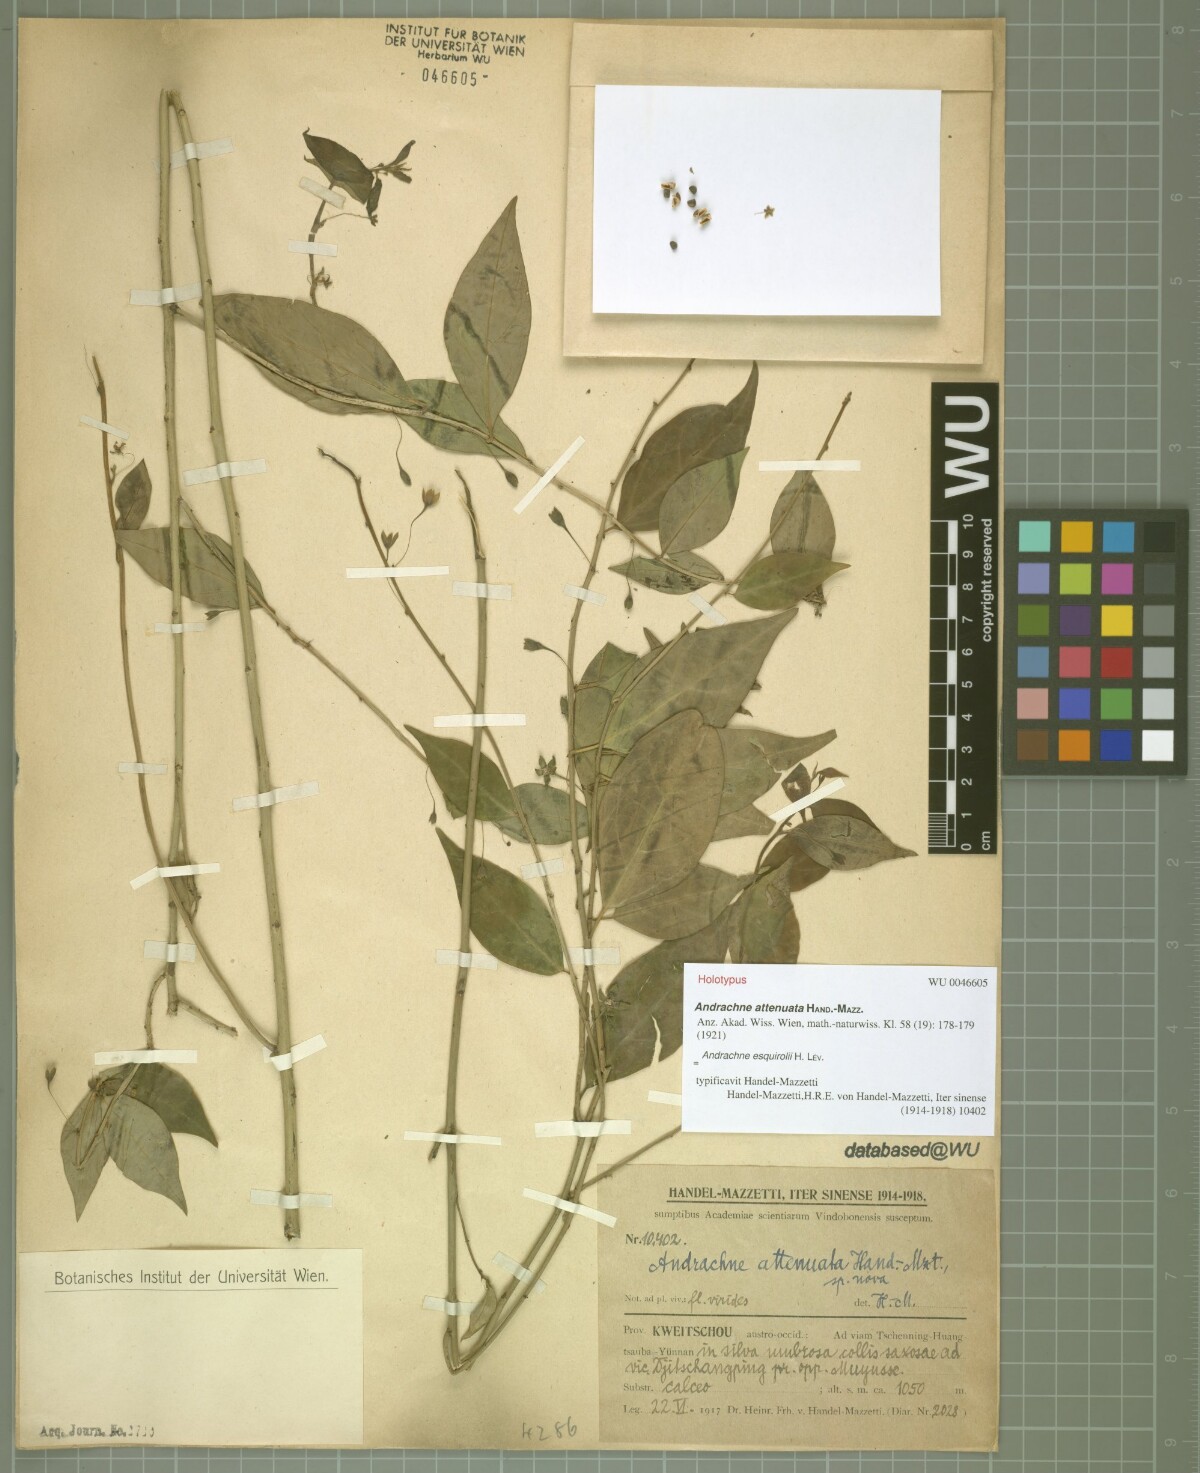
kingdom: Plantae
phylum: Tracheophyta
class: Magnoliopsida
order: Malpighiales
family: Phyllanthaceae
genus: Leptopus
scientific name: Leptopus clarkei
